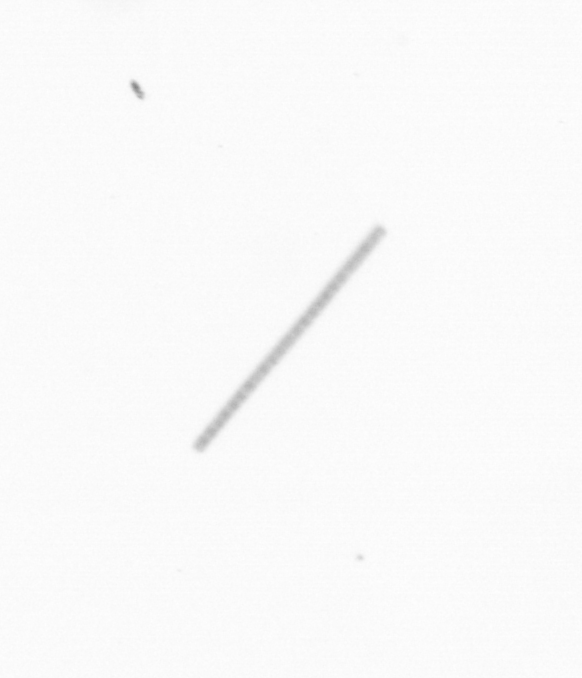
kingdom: Chromista
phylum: Ochrophyta
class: Bacillariophyceae
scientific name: Bacillariophyceae
